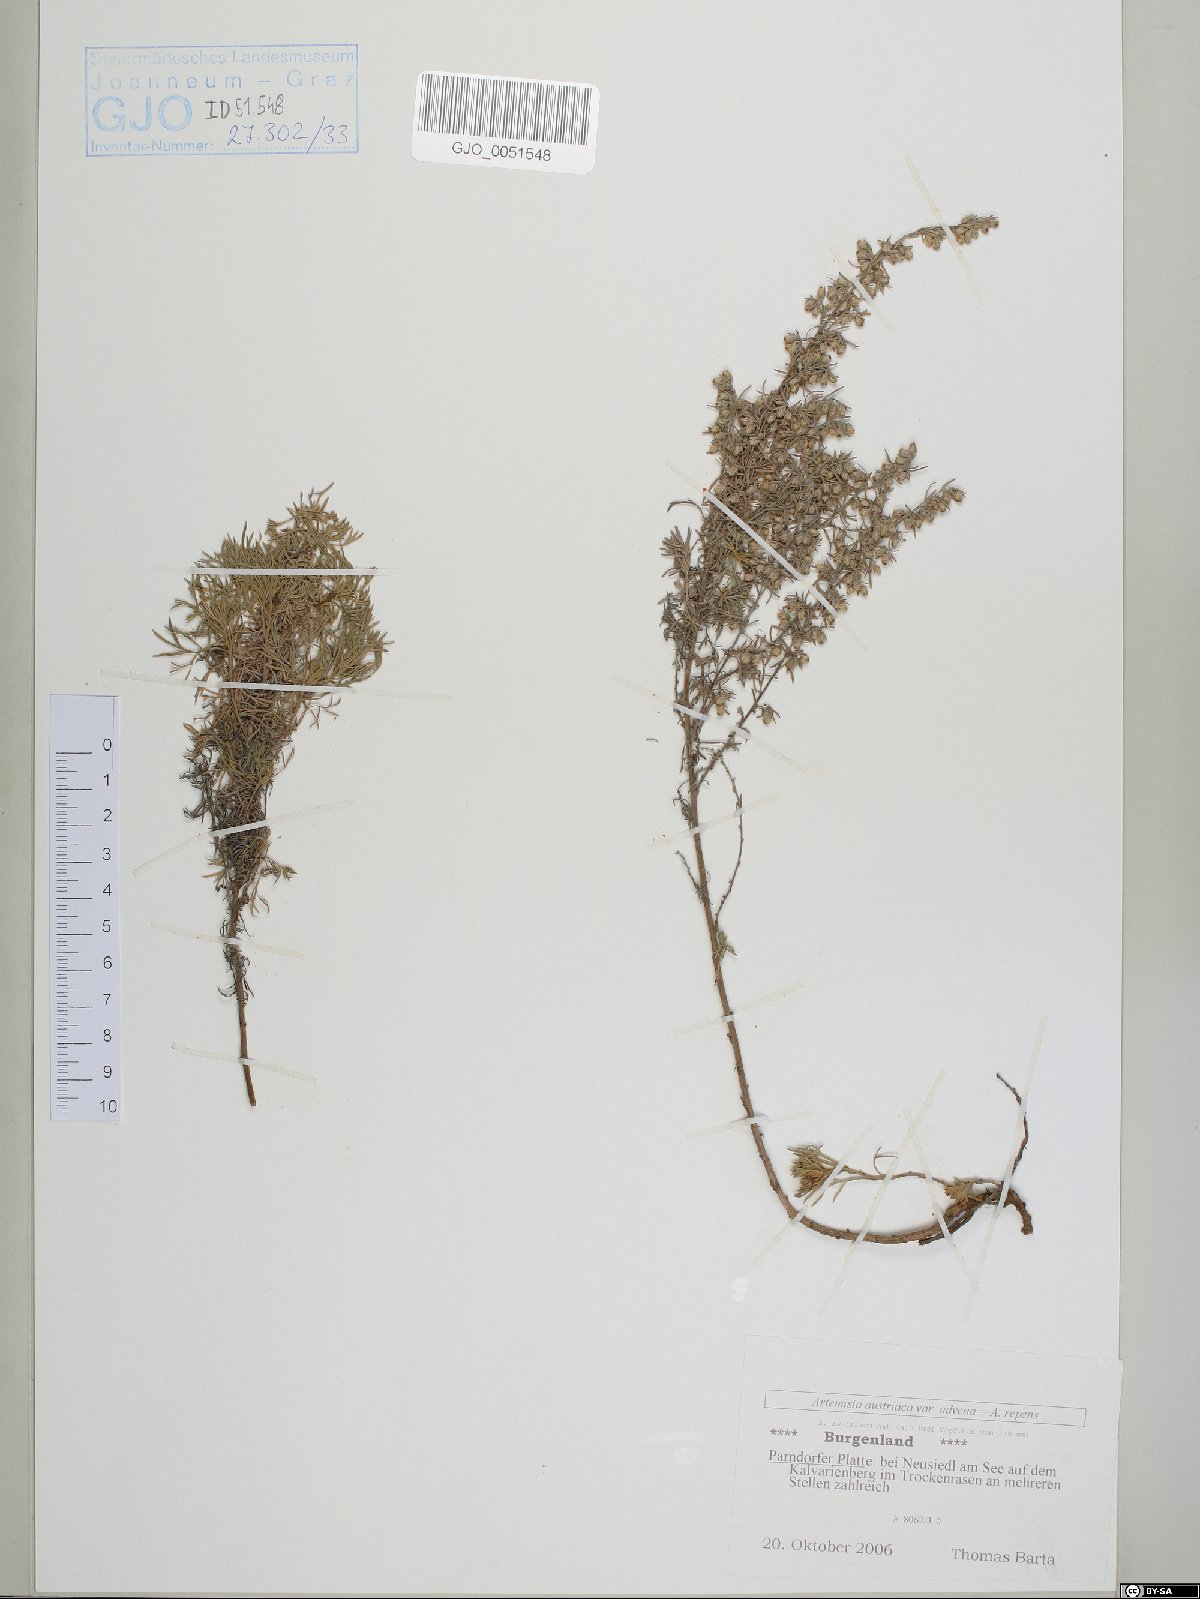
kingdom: Plantae
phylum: Tracheophyta
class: Magnoliopsida
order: Asterales
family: Asteraceae
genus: Artemisia
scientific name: Artemisia austriaca
